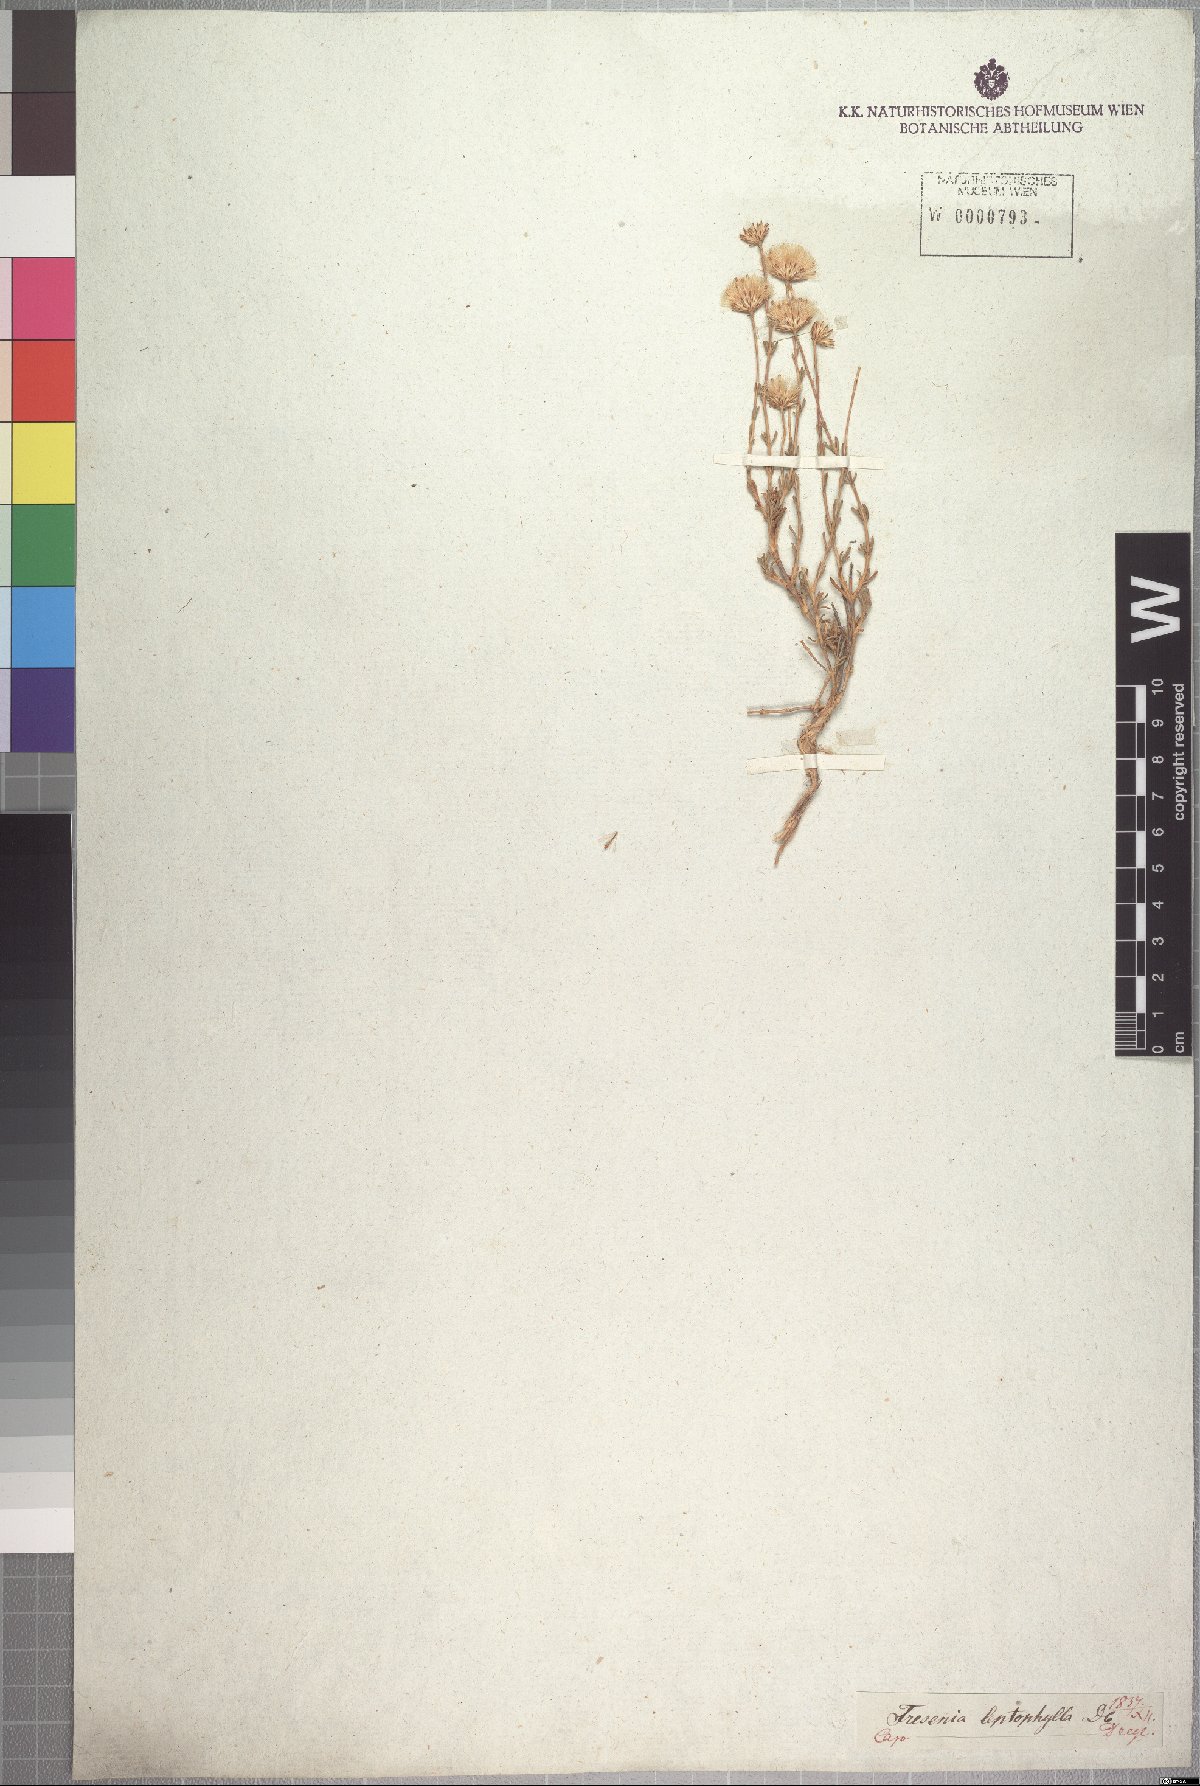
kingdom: Plantae
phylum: Tracheophyta
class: Magnoliopsida
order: Asterales
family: Asteraceae
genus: Felicia
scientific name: Felicia filifolia
